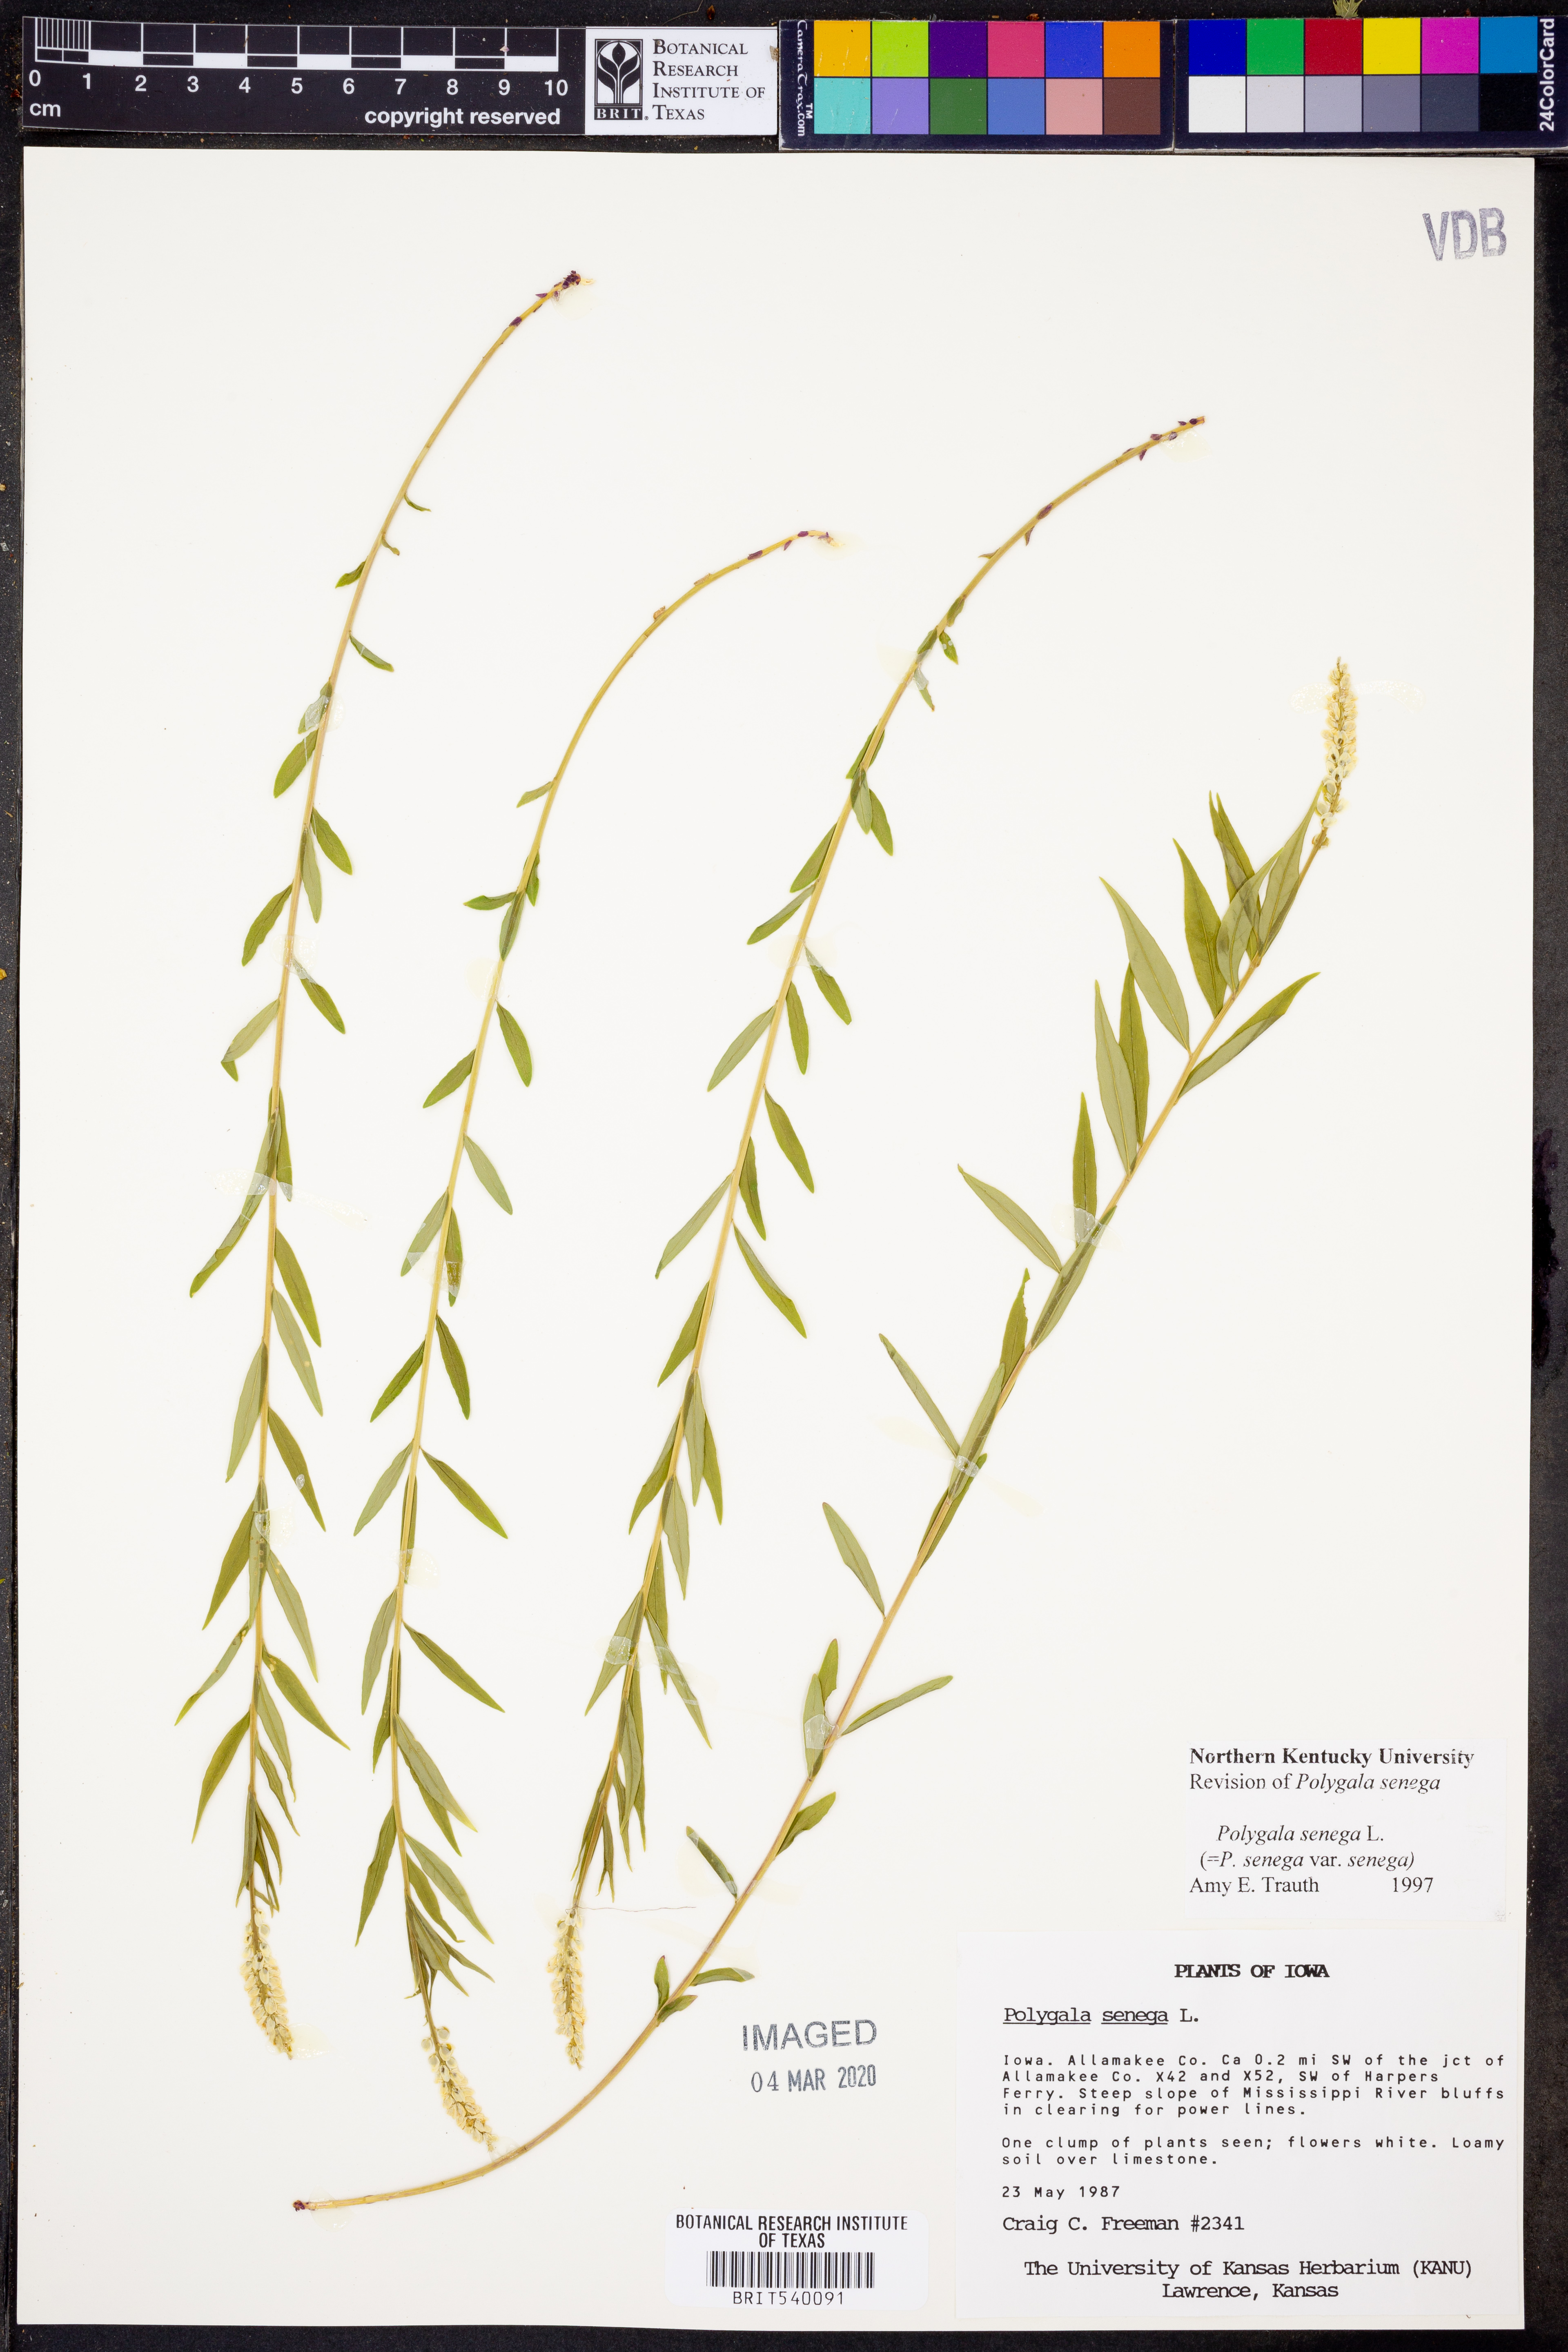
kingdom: Plantae
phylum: Tracheophyta
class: Magnoliopsida
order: Fabales
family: Polygalaceae
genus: Polygala
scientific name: Polygala senega
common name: Seneca snakeroot
